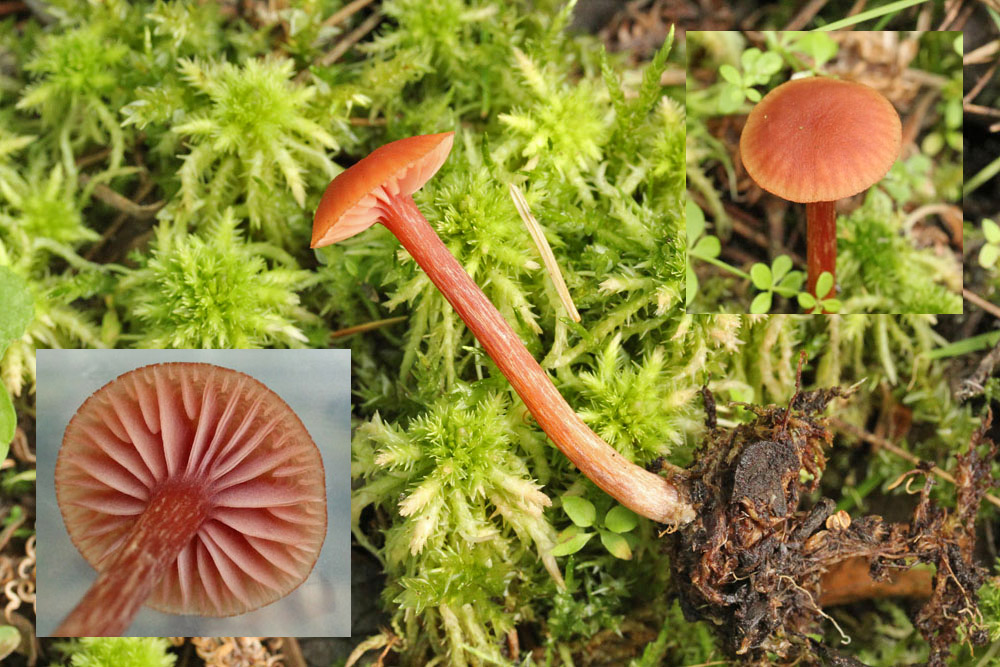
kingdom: Fungi
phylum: Basidiomycota
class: Agaricomycetes
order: Agaricales
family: Hydnangiaceae
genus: Laccaria
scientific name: Laccaria laccata
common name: rød ametysthat
